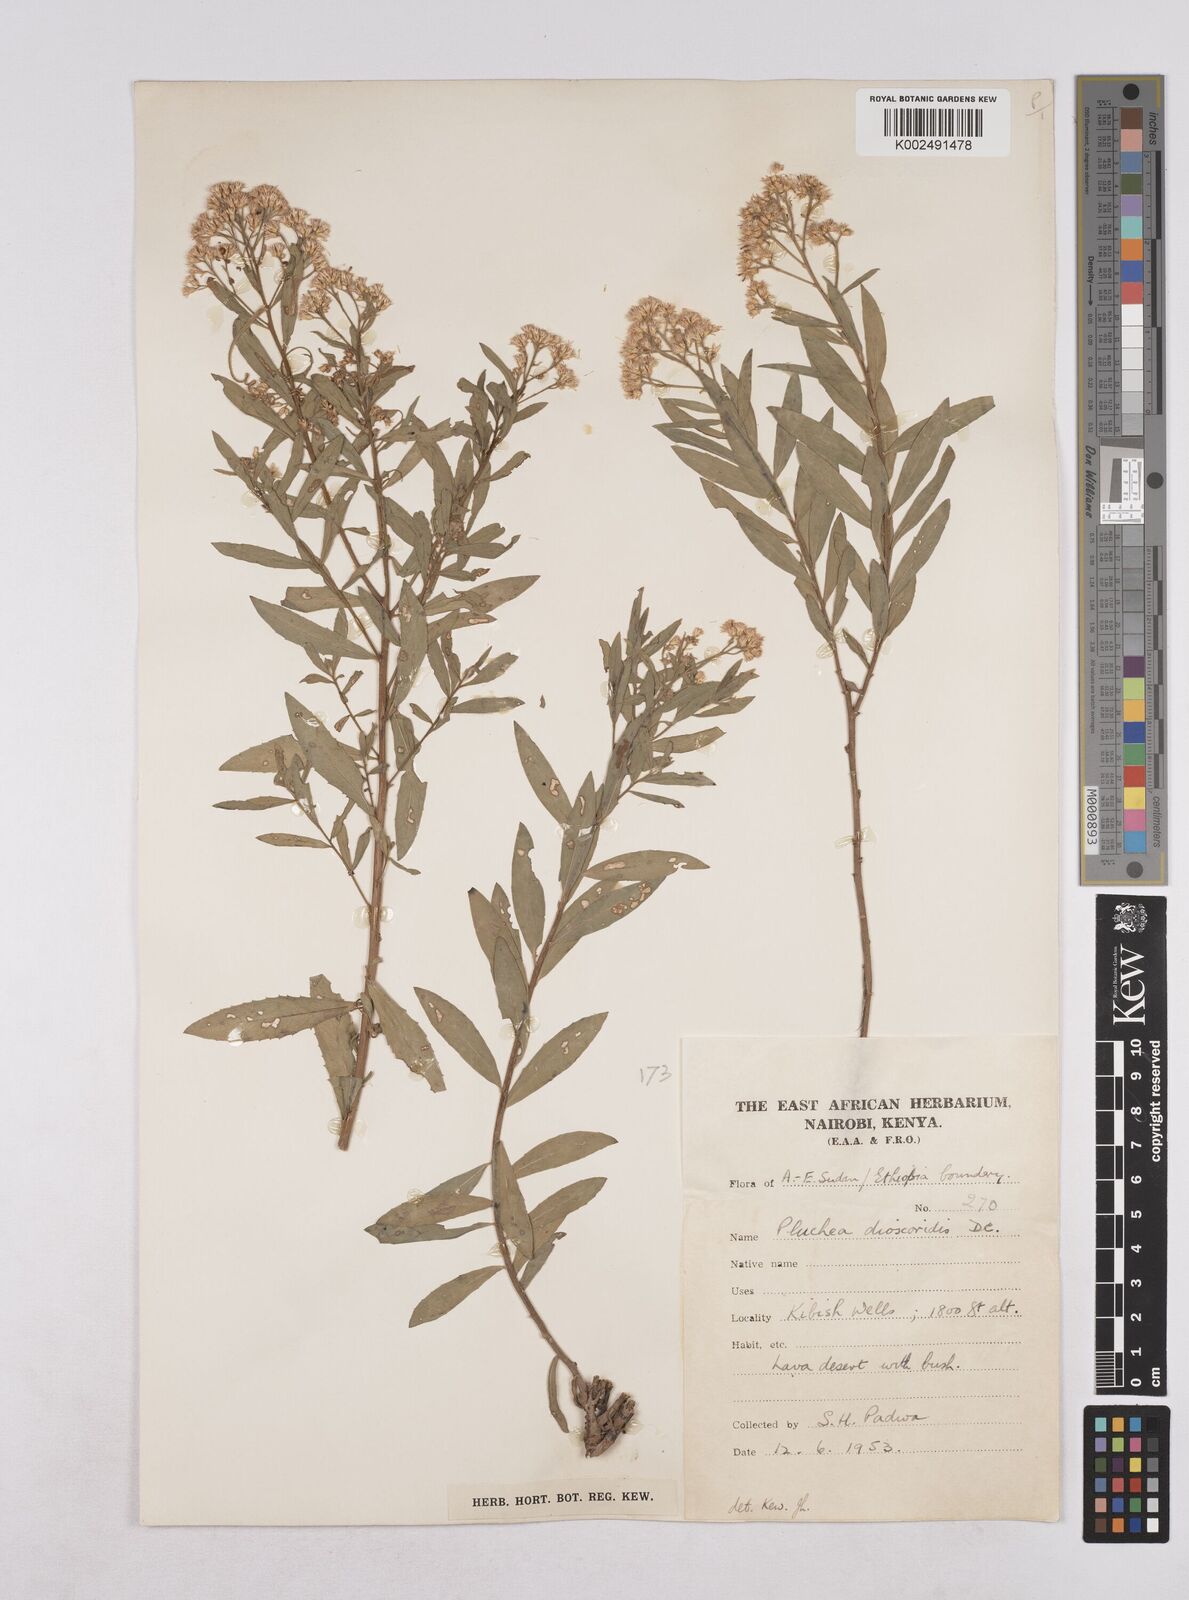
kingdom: Plantae
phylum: Tracheophyta
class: Magnoliopsida
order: Asterales
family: Asteraceae
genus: Pluchea
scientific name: Pluchea dioscoridis
